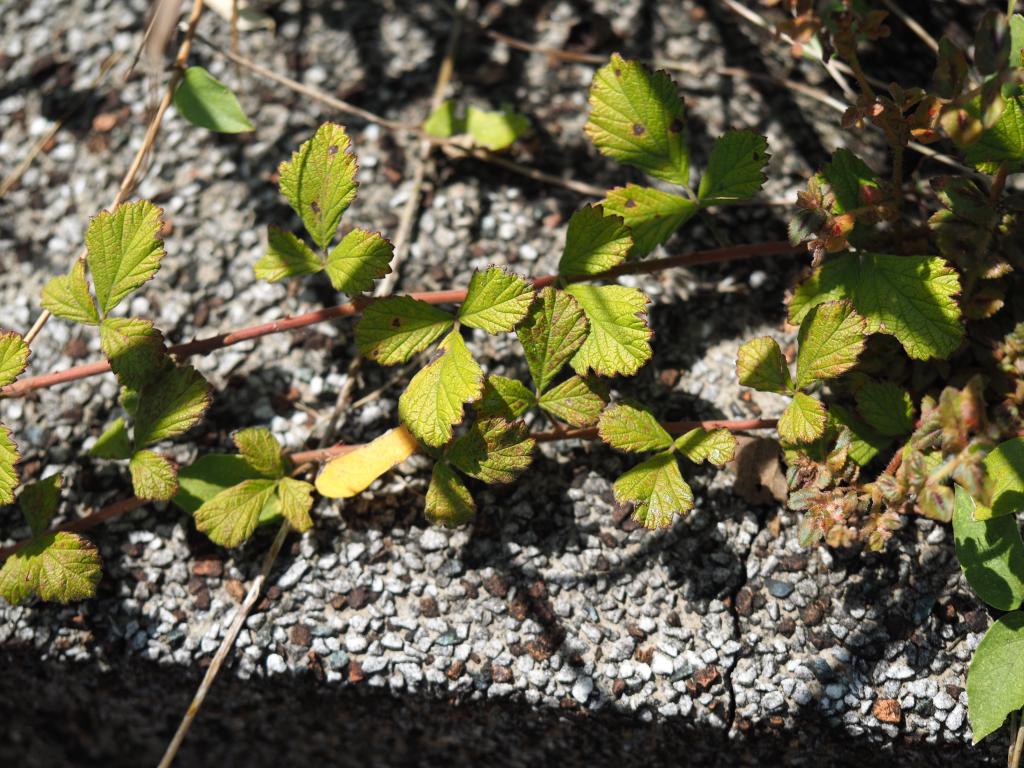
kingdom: Plantae
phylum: Tracheophyta
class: Magnoliopsida
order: Rosales
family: Rosaceae
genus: Rubus
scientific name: Rubus parvifolius
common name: Threeleaf blackberry
